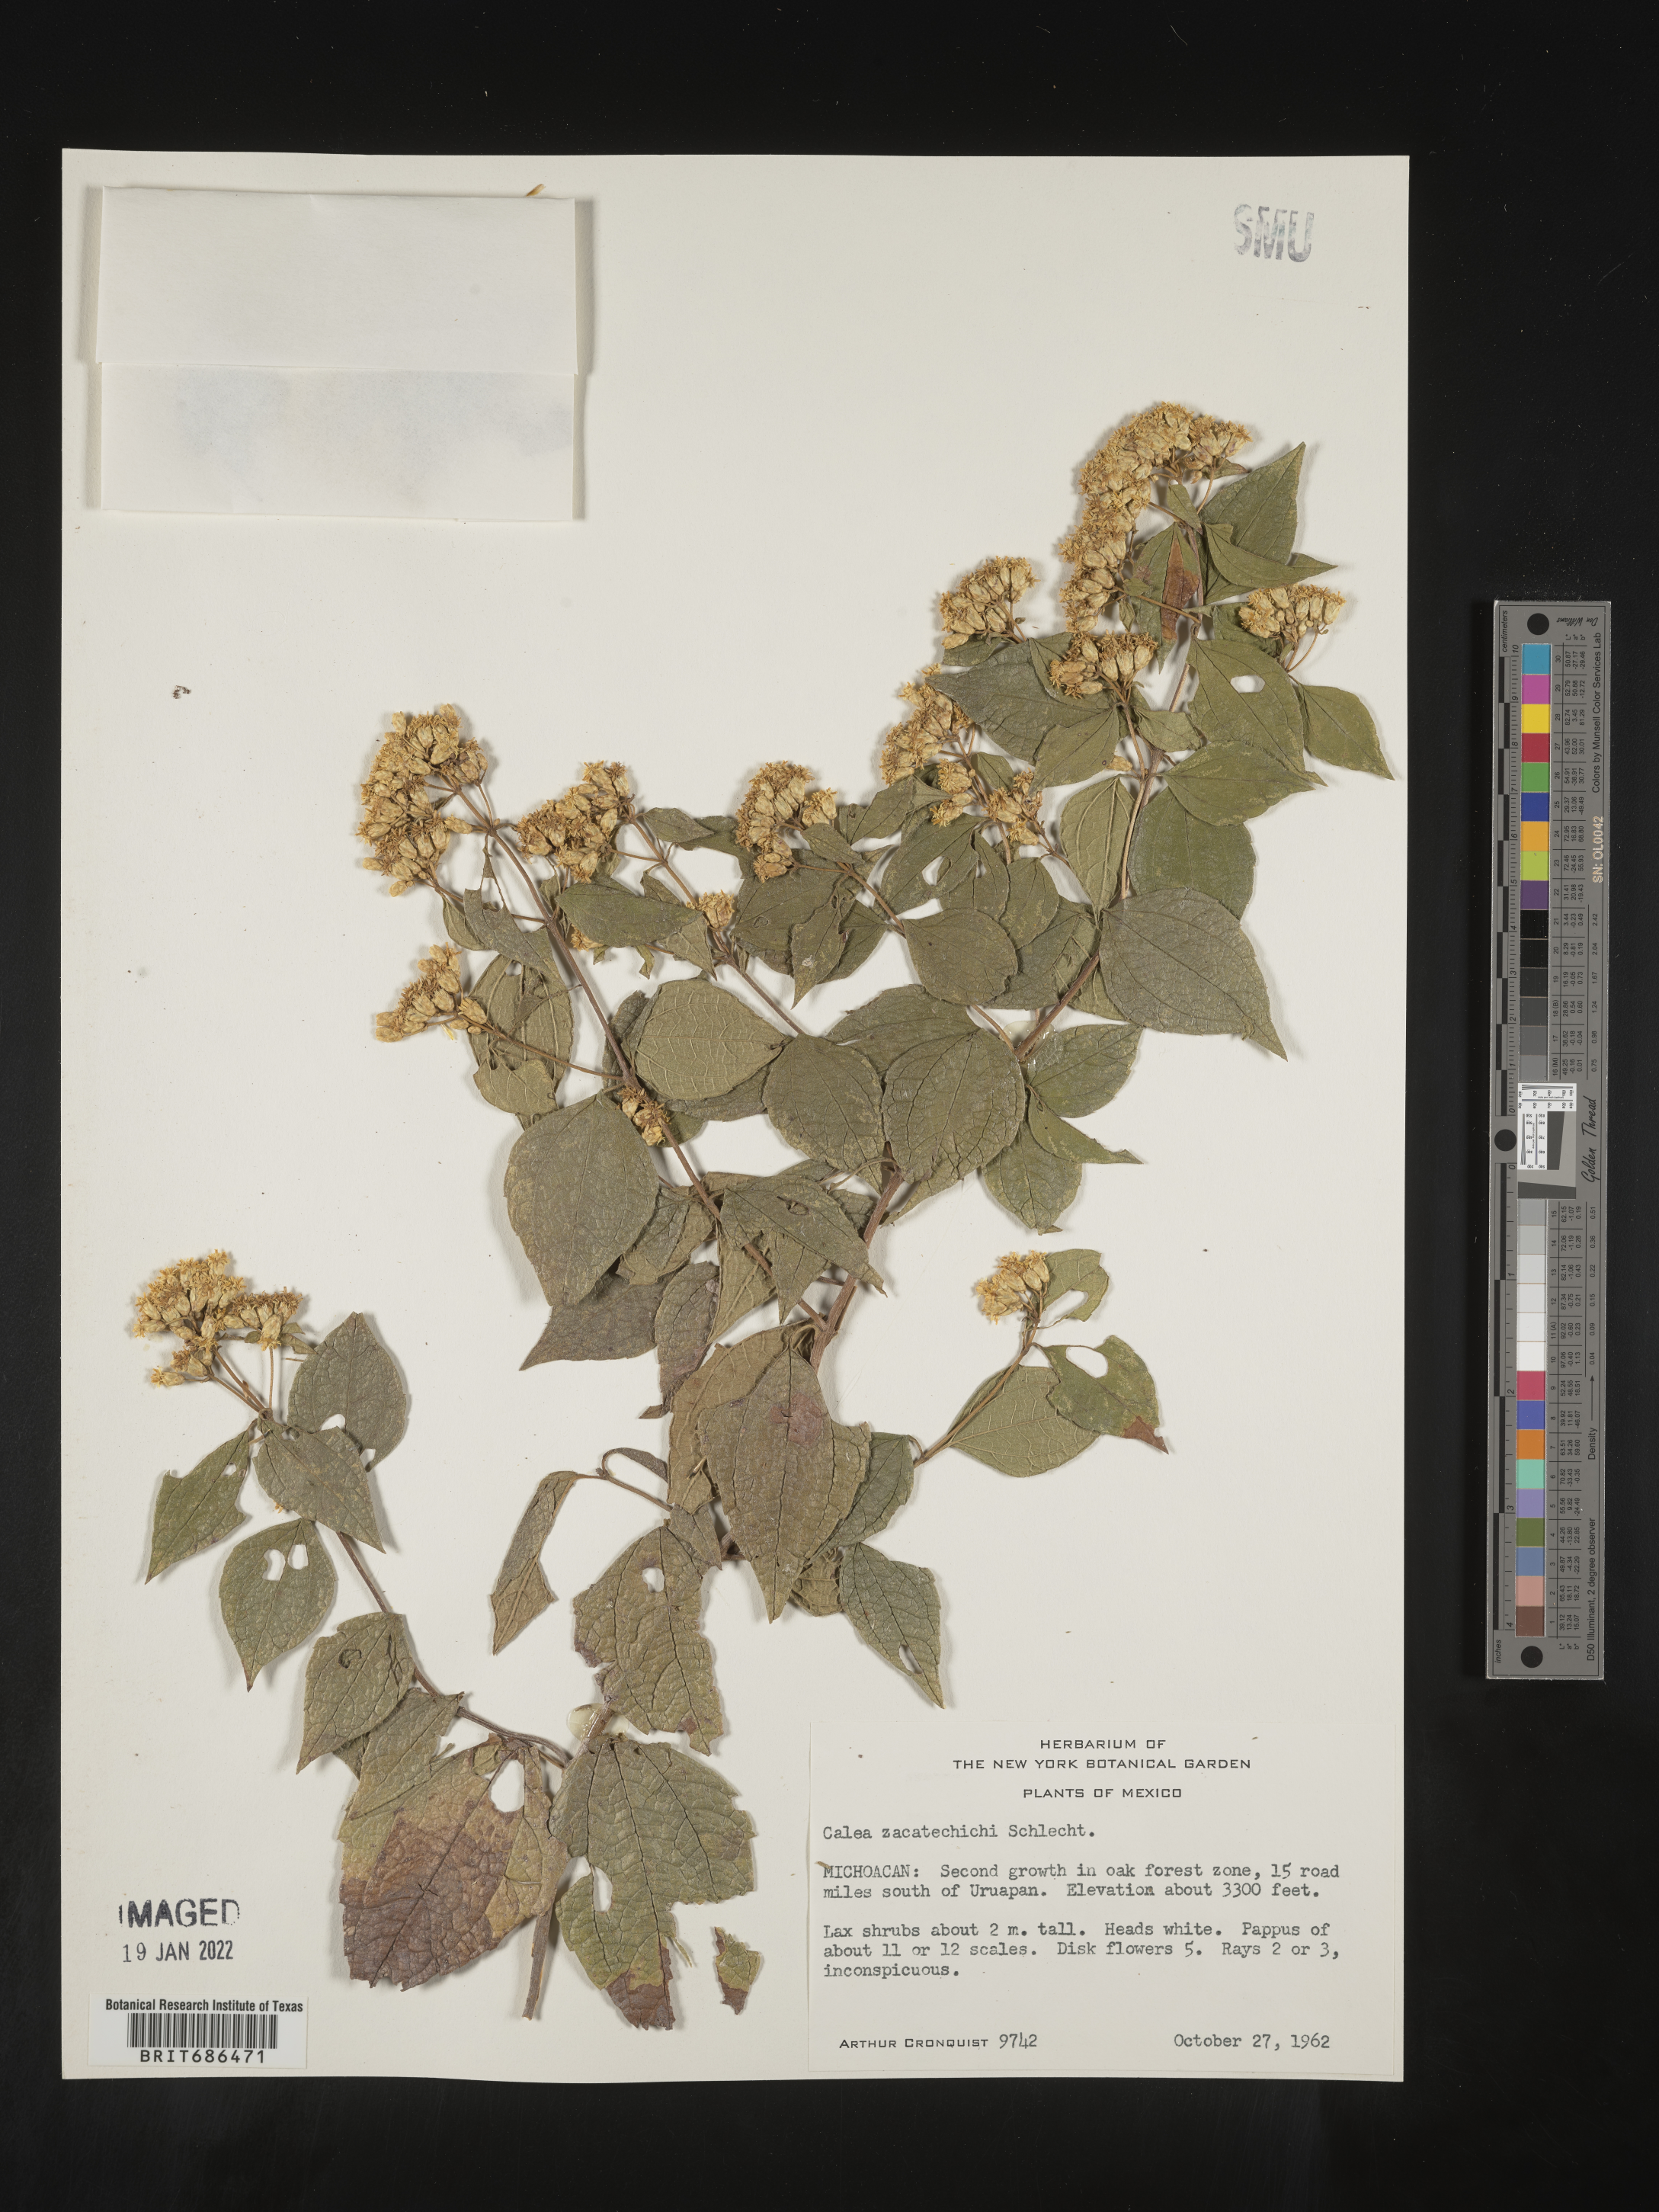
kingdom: Plantae
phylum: Tracheophyta
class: Magnoliopsida
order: Asterales
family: Asteraceae
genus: Calea
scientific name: Calea trichotoma
